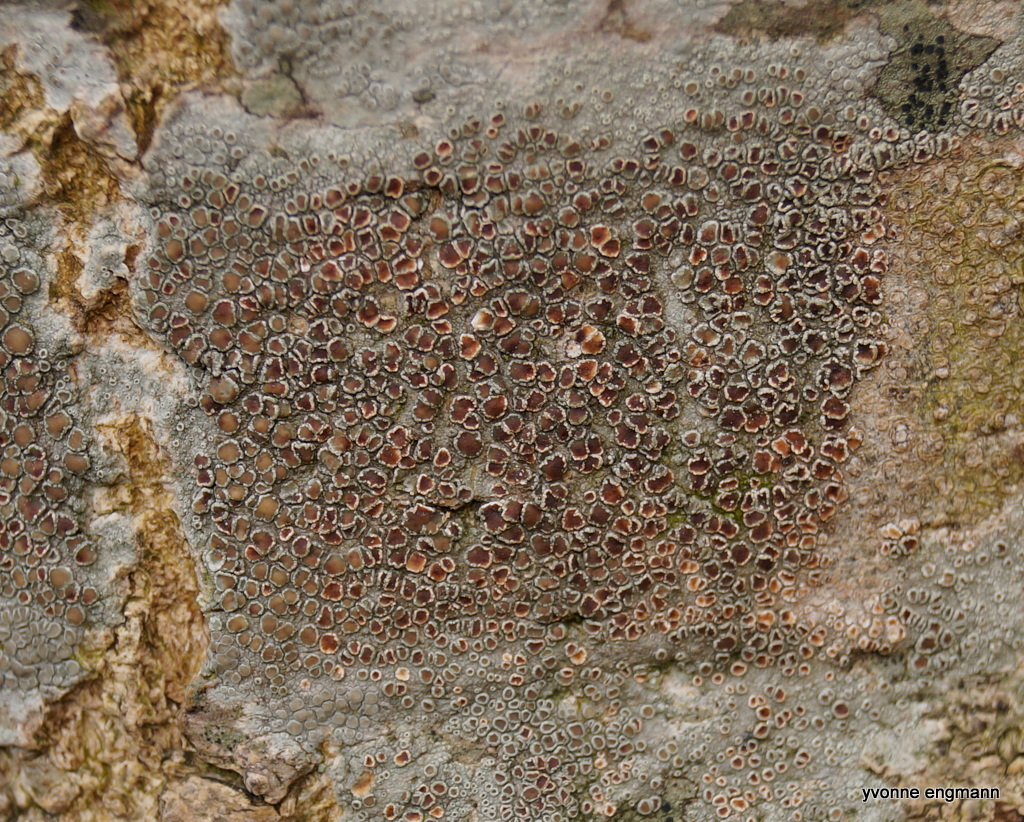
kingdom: Fungi
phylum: Ascomycota
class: Lecanoromycetes
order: Lecanorales
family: Lecanoraceae
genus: Lecanora
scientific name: Lecanora chlarotera
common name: brun kantskivelav
